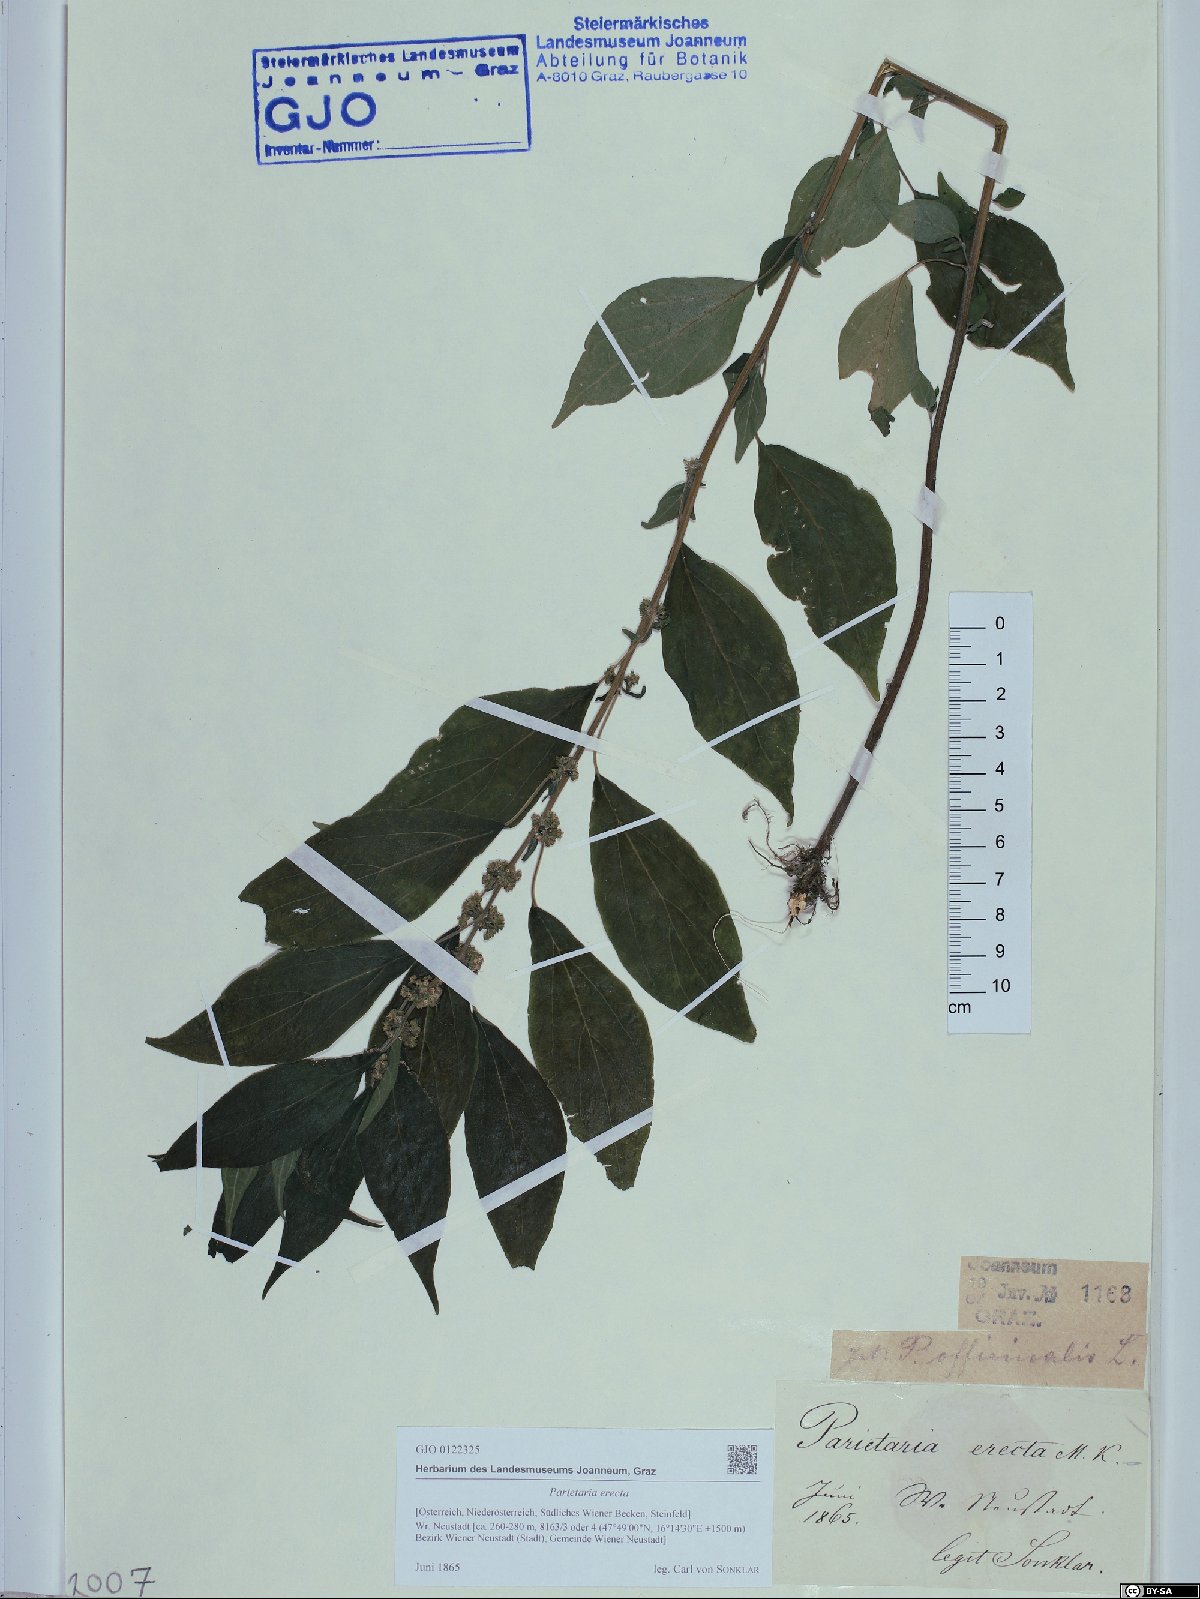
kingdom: Plantae
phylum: Tracheophyta
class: Magnoliopsida
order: Rosales
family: Urticaceae
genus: Parietaria
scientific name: Parietaria officinalis
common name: Eastern pellitory-of-the-wall
